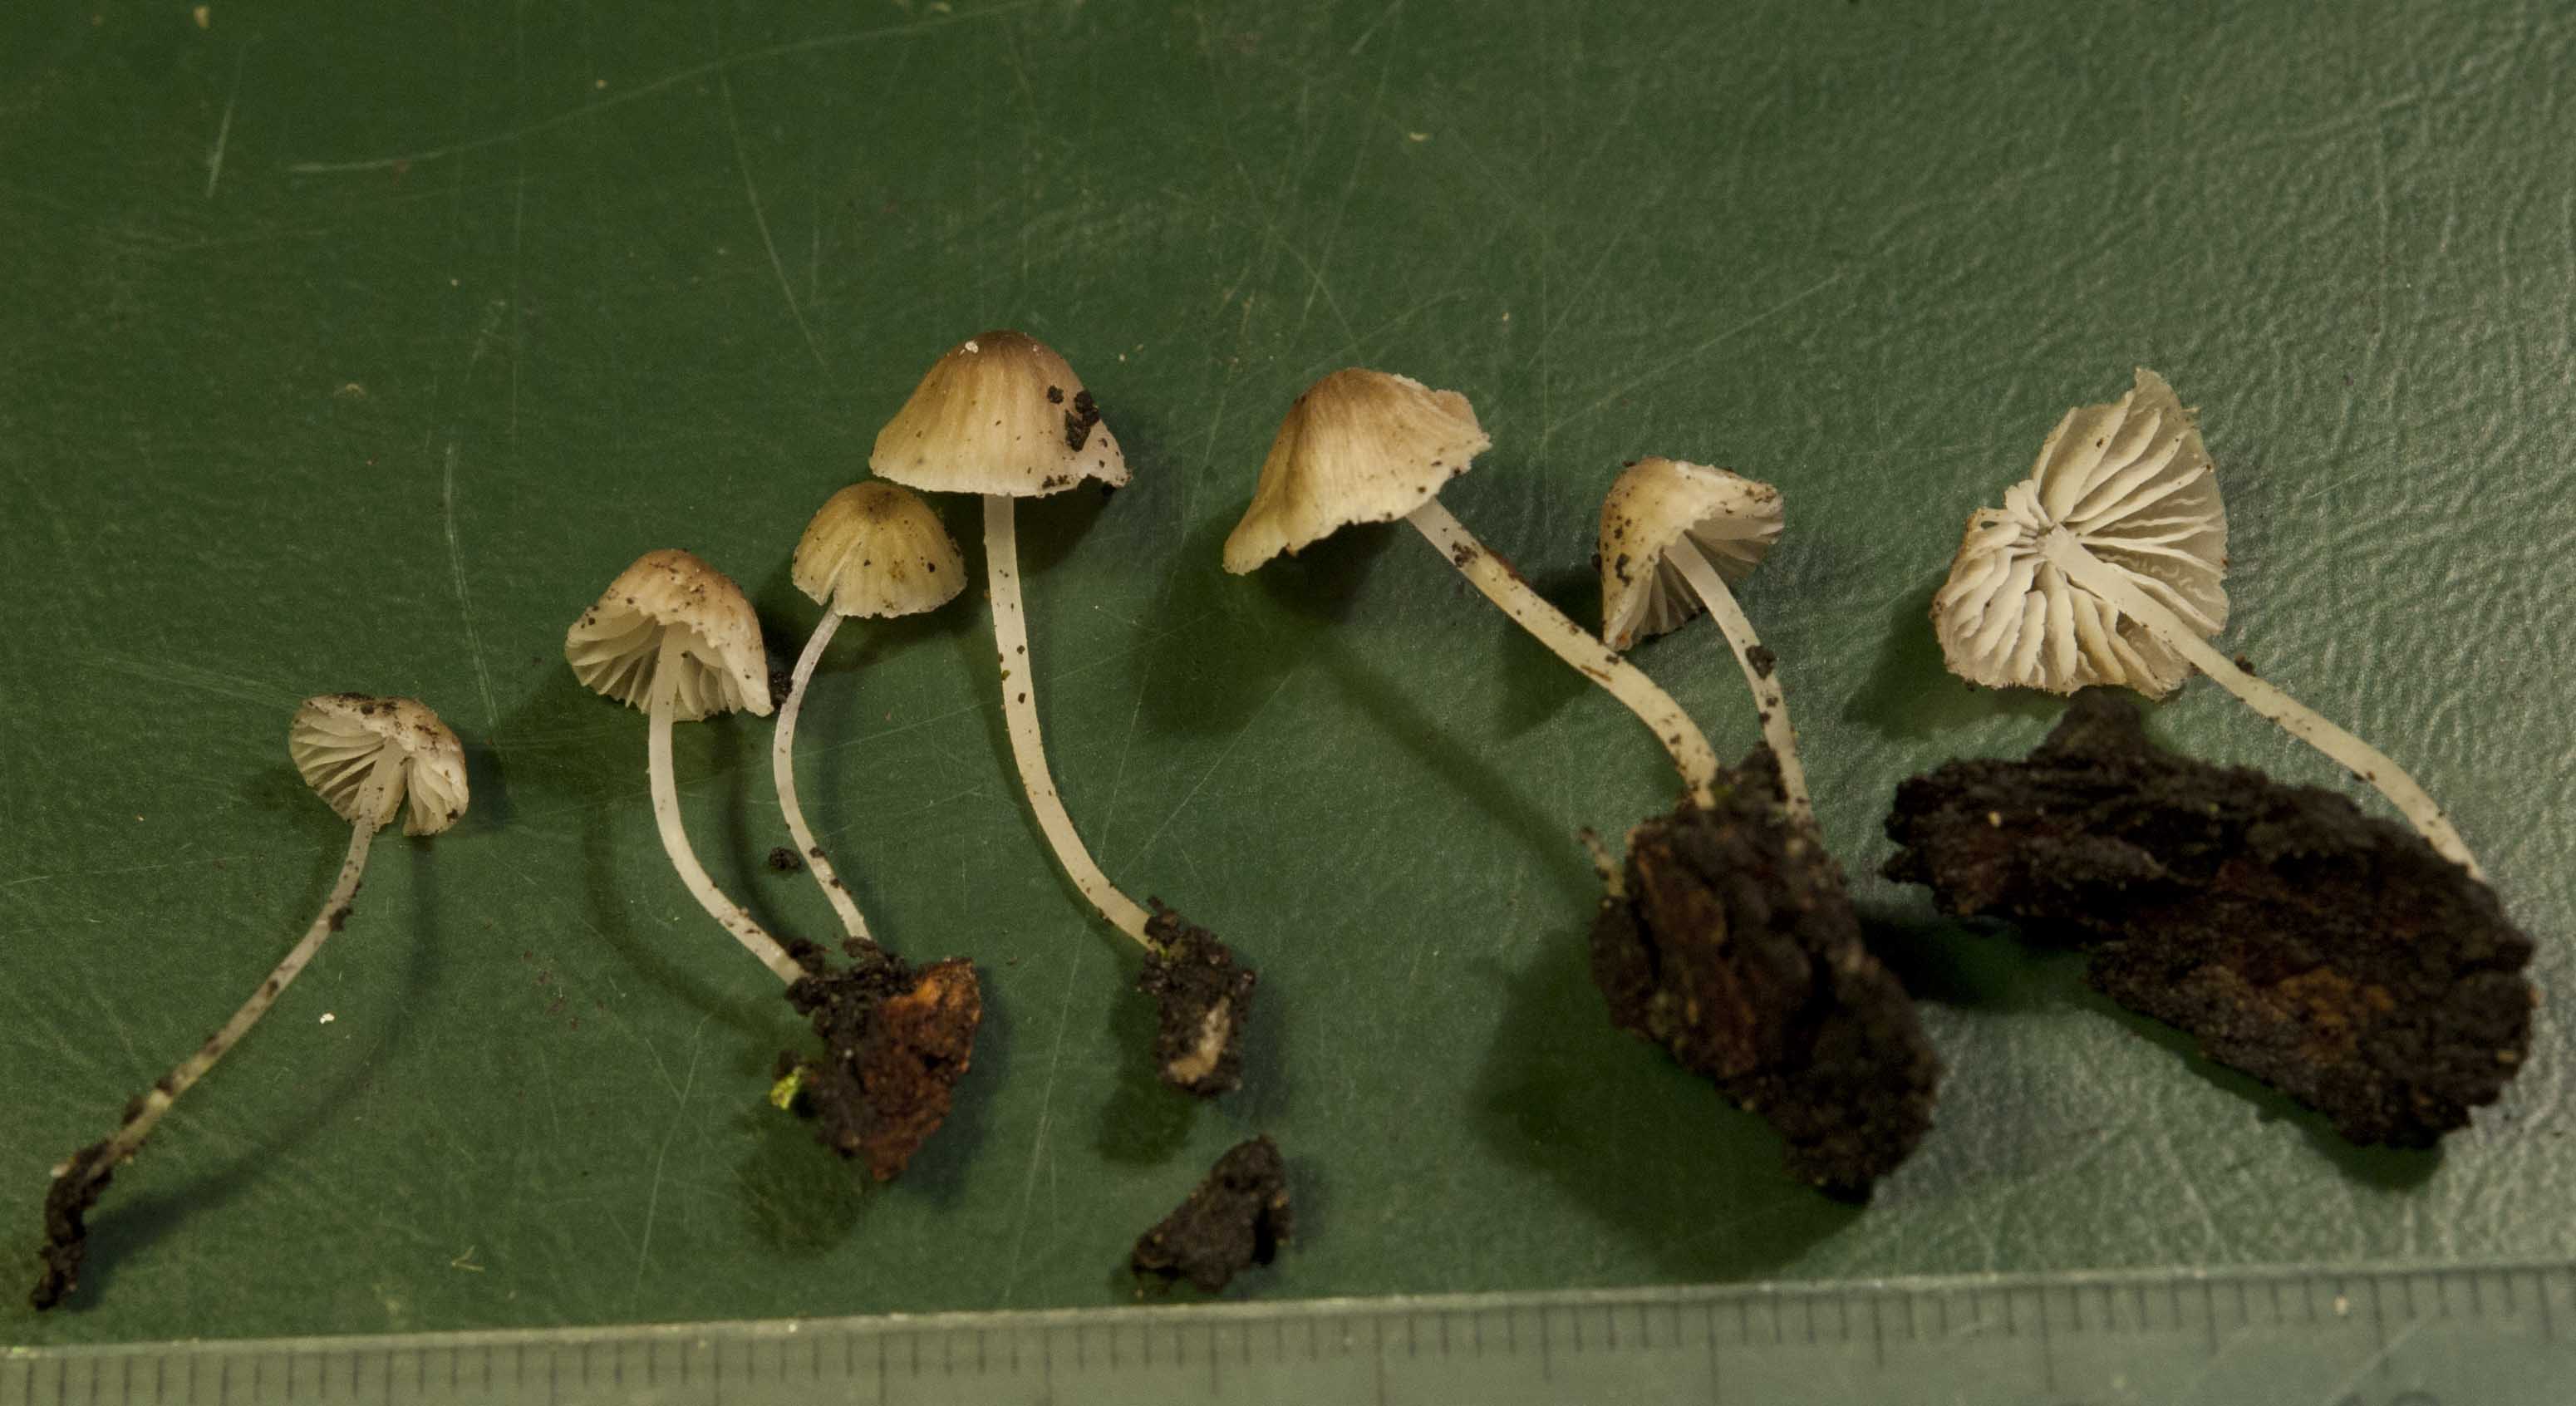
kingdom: Fungi
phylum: Basidiomycota
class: Agaricomycetes
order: Agaricales
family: Porotheleaceae
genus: Phloeomana
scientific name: Phloeomana hiemalis
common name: sen huesvamp
